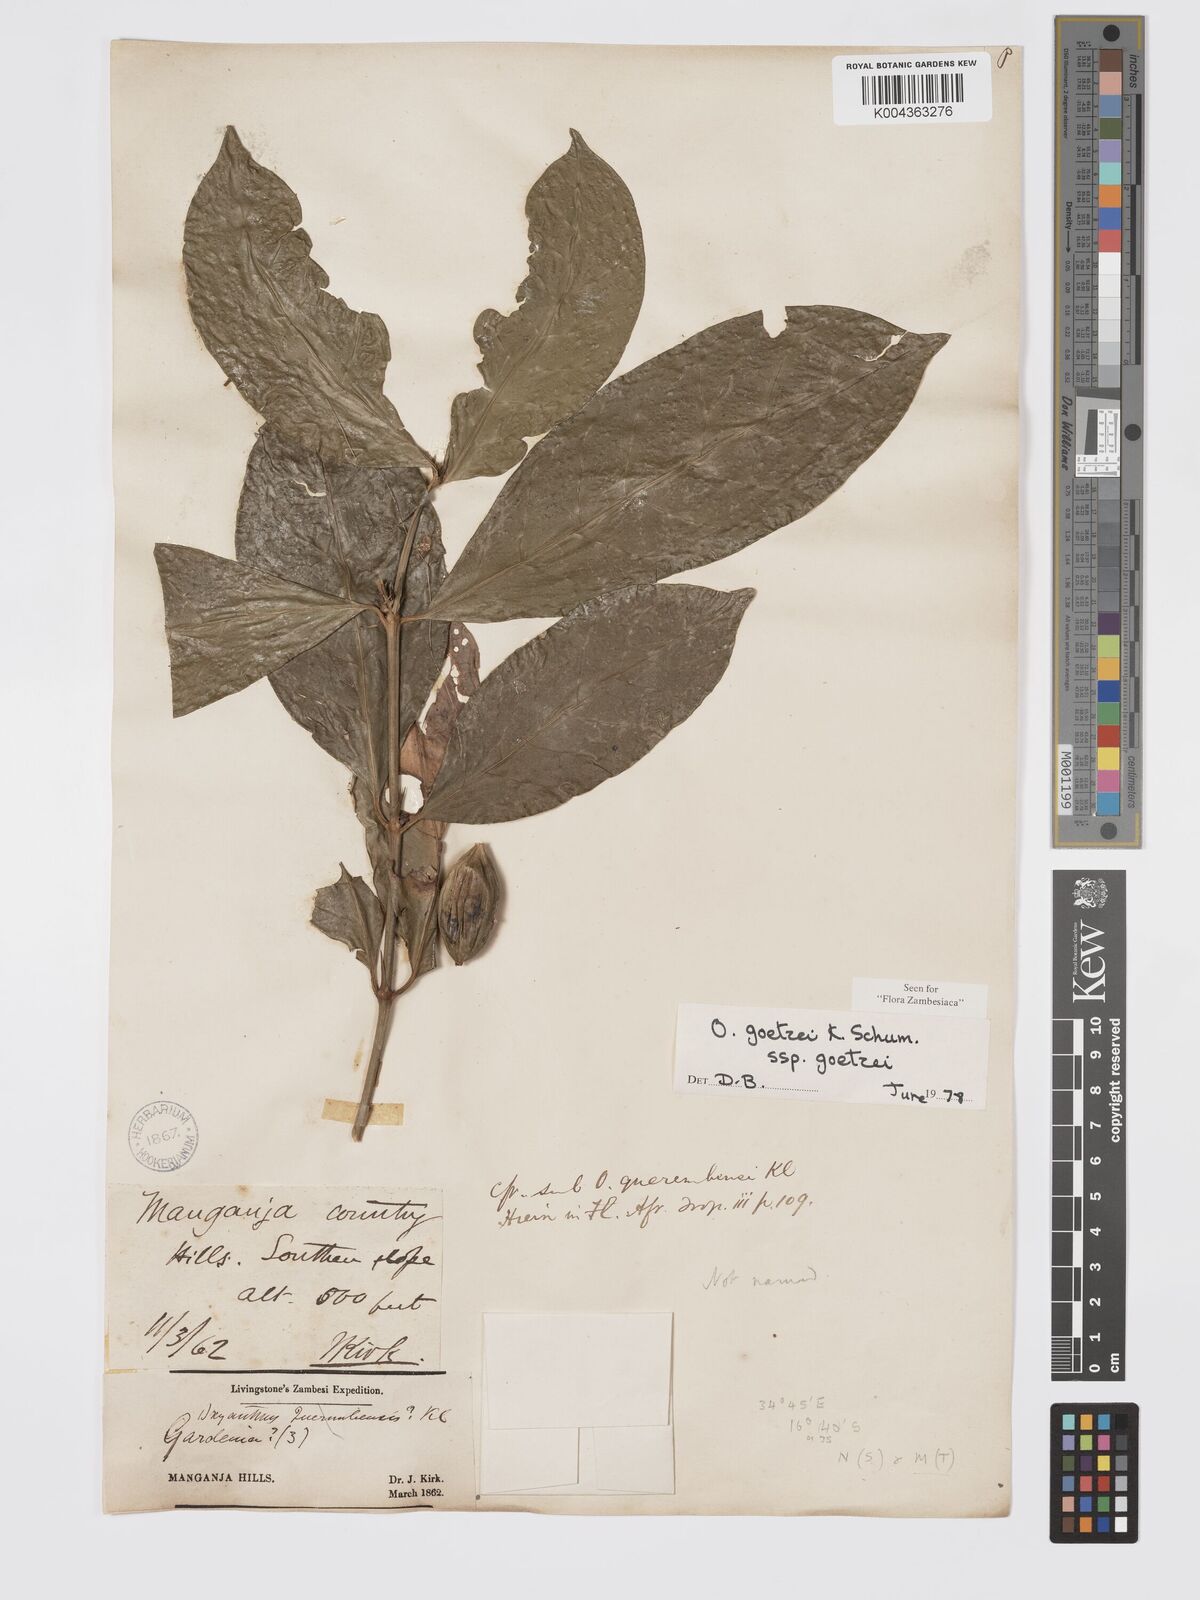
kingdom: Plantae
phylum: Tracheophyta
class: Magnoliopsida
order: Gentianales
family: Rubiaceae
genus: Oxyanthus
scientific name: Oxyanthus goetzei
